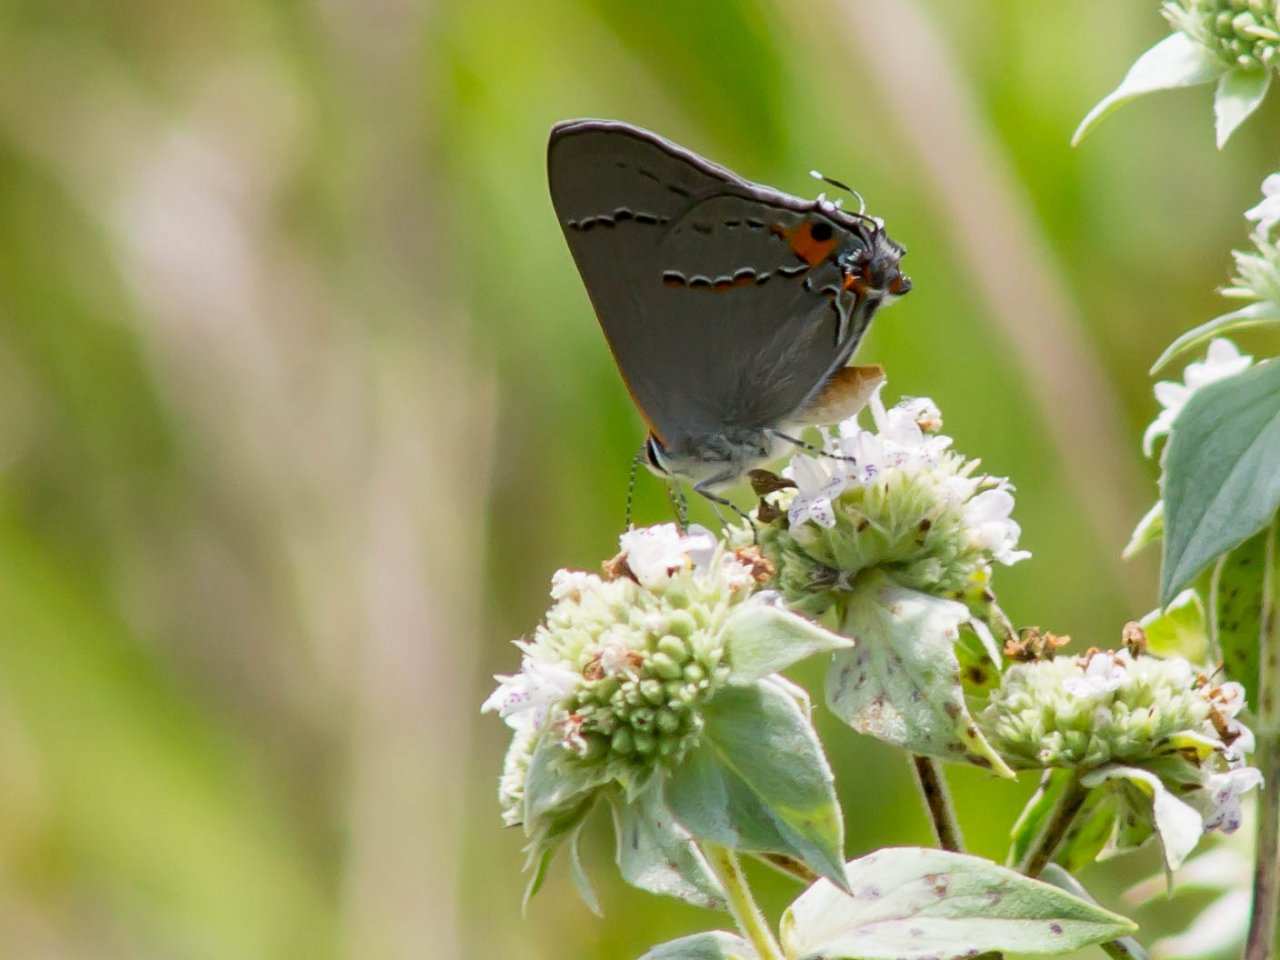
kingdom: Animalia
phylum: Arthropoda
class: Insecta
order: Lepidoptera
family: Lycaenidae
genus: Strymon
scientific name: Strymon melinus
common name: Gray Hairstreak
